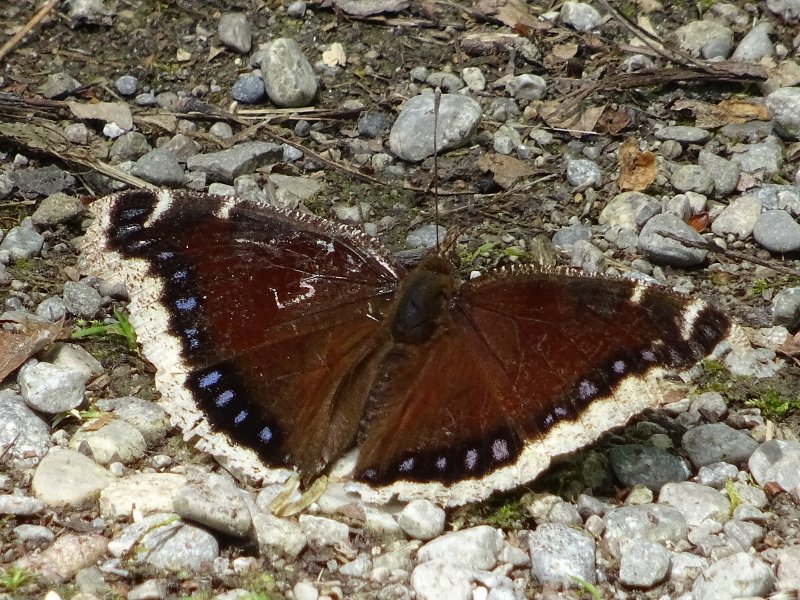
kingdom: Animalia
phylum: Arthropoda
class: Insecta
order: Lepidoptera
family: Nymphalidae
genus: Nymphalis
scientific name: Nymphalis antiopa
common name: Mourning Cloak
